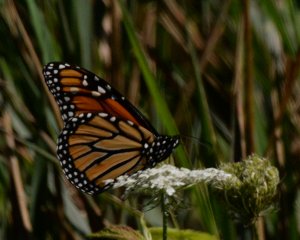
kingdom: Animalia
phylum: Arthropoda
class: Insecta
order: Lepidoptera
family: Nymphalidae
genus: Danaus
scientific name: Danaus plexippus
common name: Monarch
